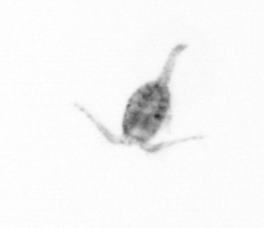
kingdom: Animalia
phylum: Arthropoda
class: Copepoda
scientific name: Copepoda
